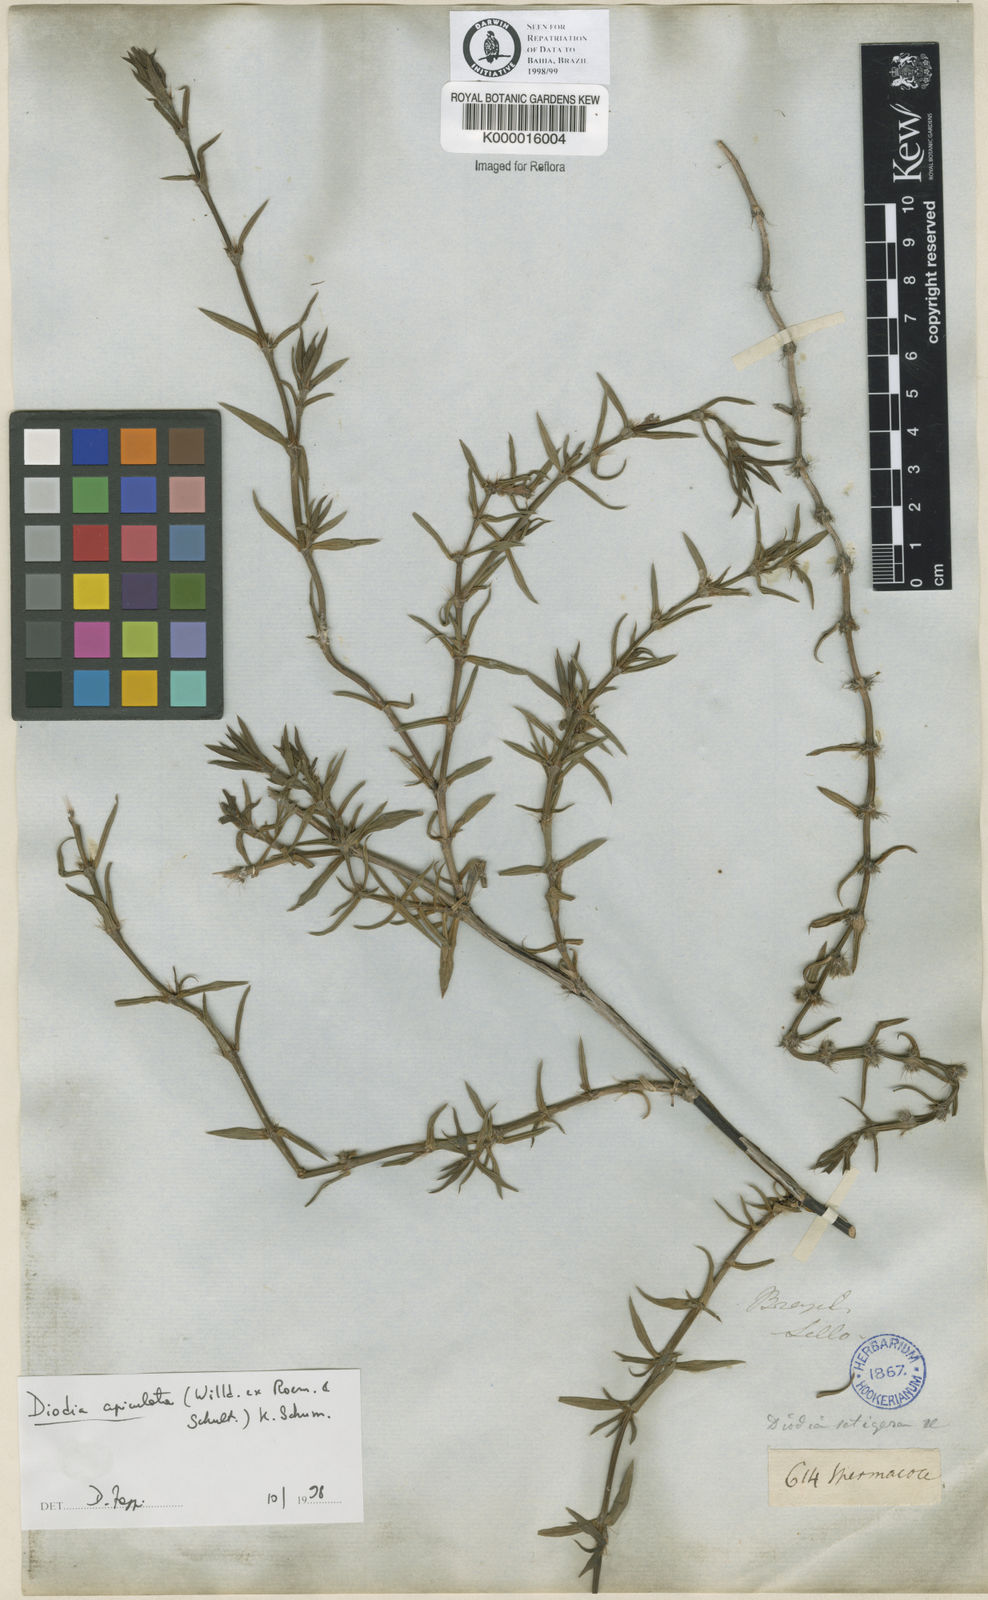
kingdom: Plantae
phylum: Tracheophyta
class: Magnoliopsida
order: Gentianales
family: Rubiaceae
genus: Hexasepalum
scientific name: Hexasepalum apiculatum
